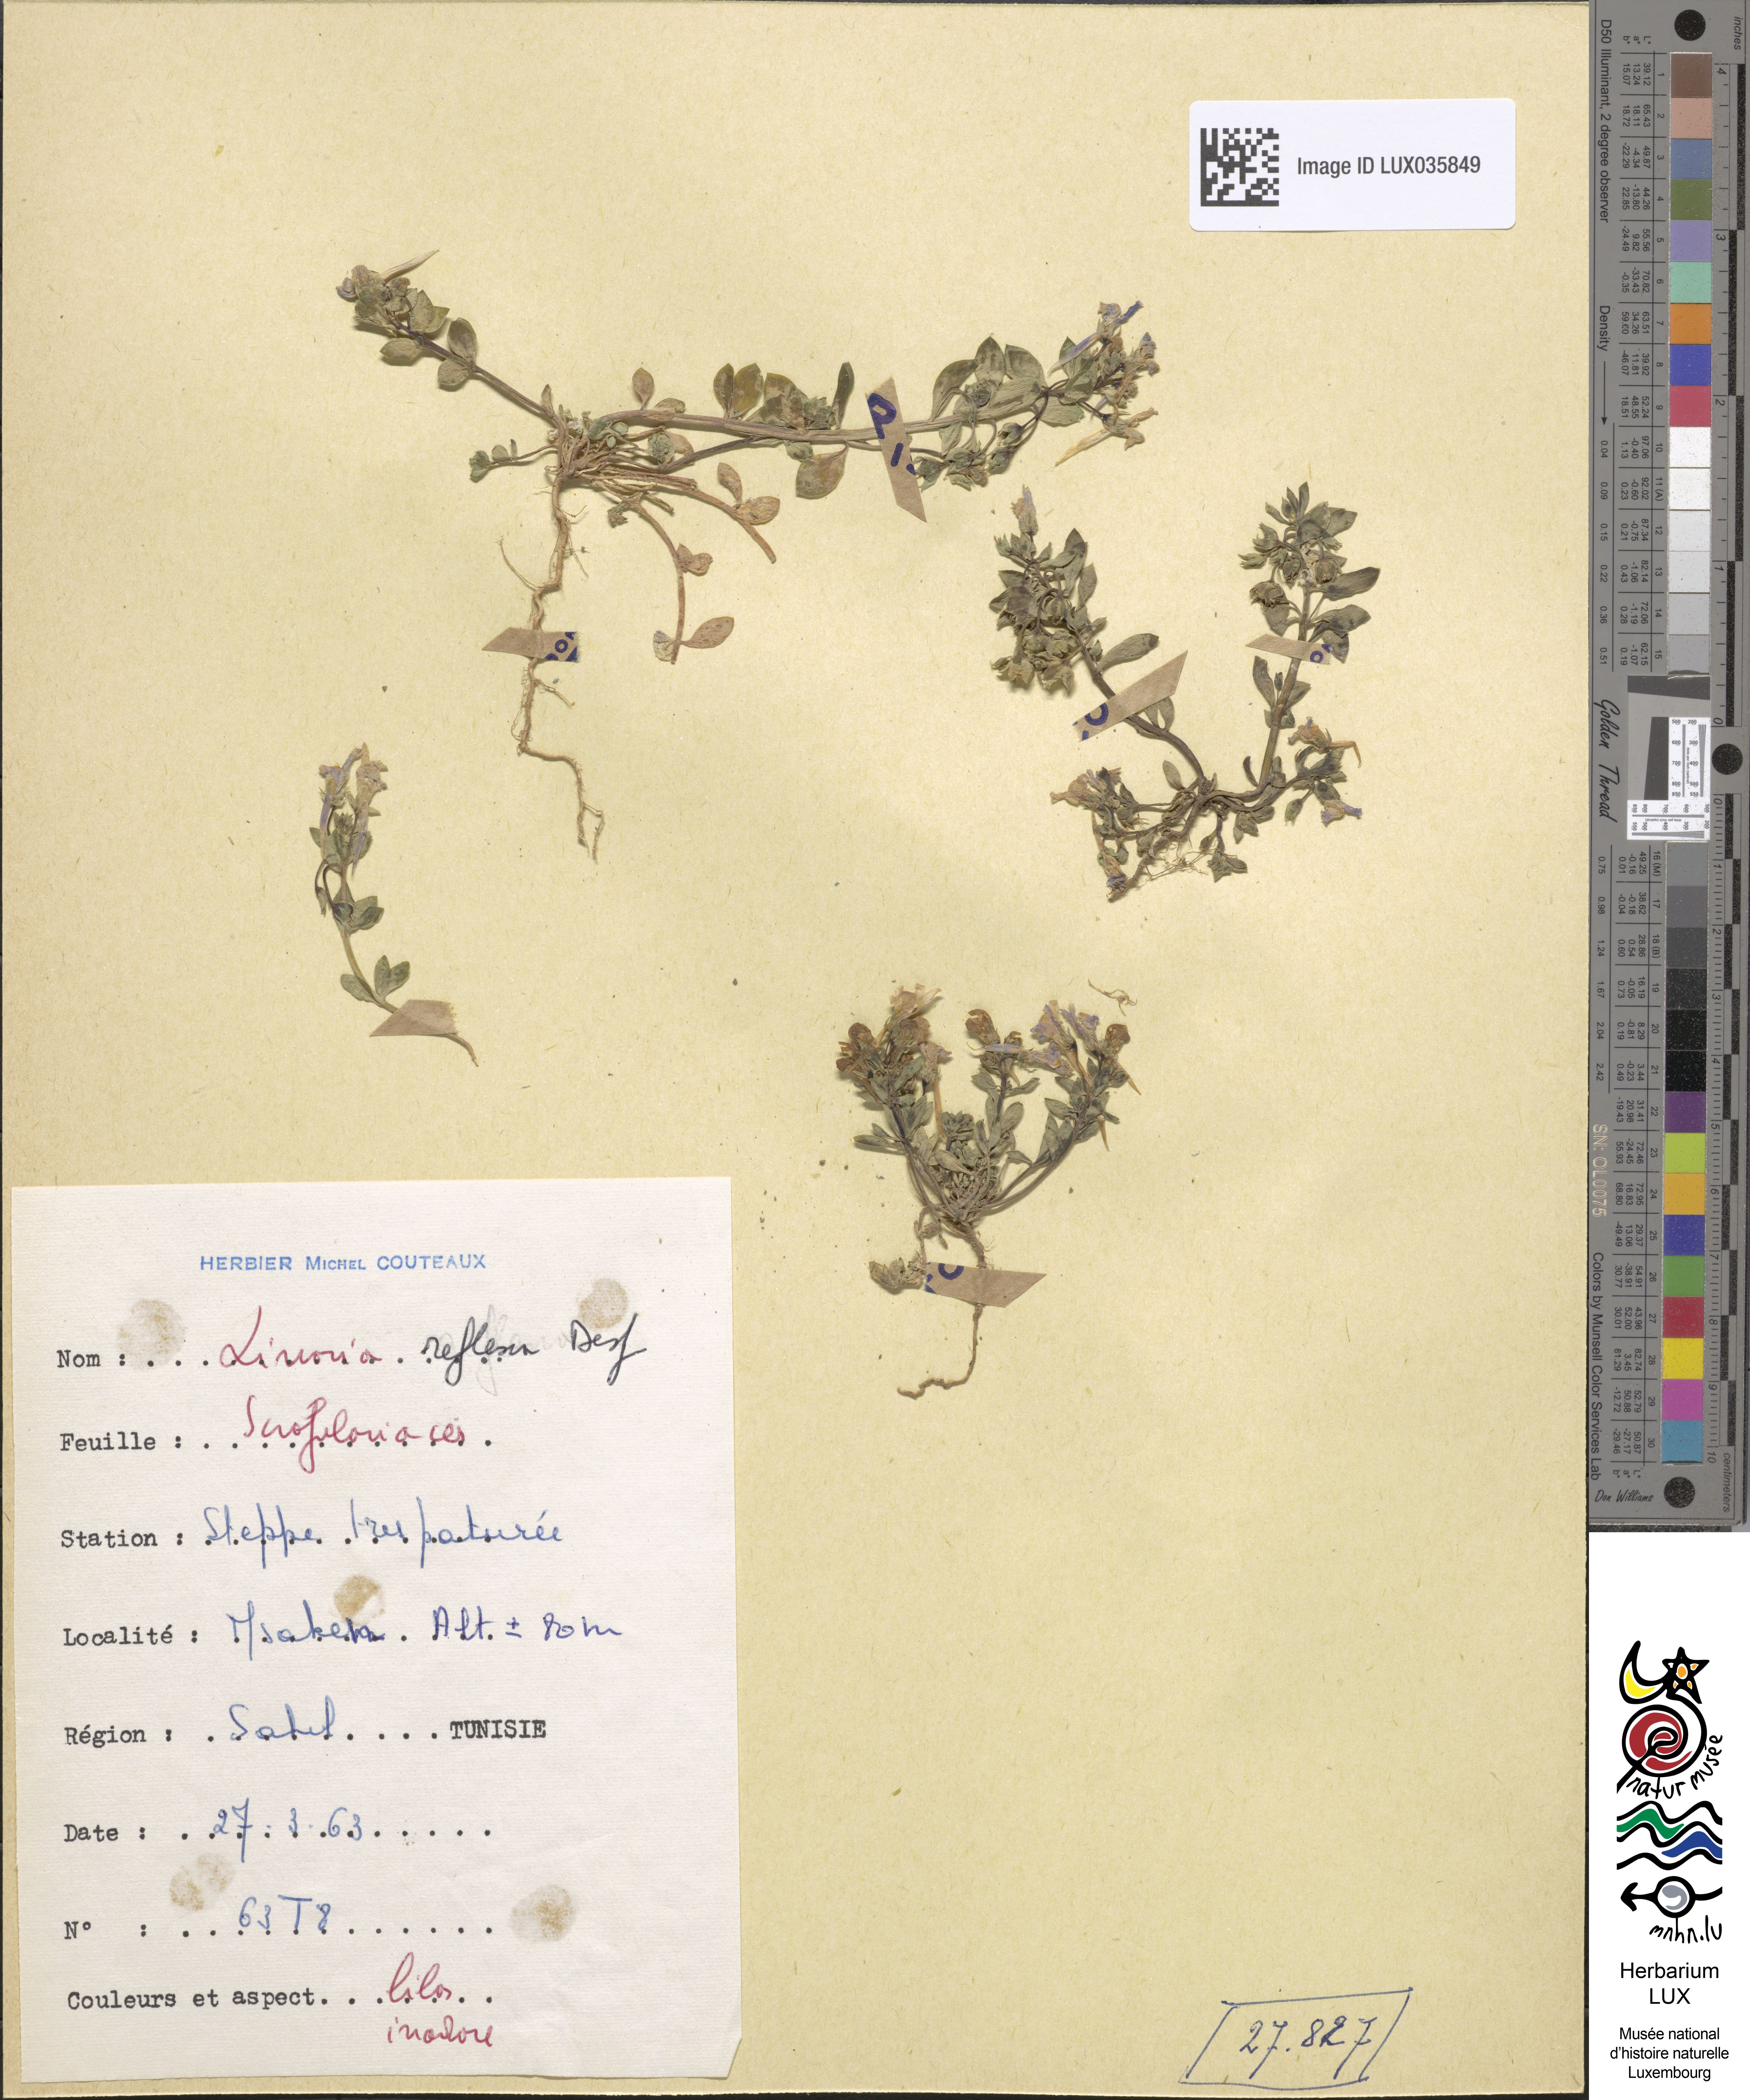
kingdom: Plantae
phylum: Tracheophyta
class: Magnoliopsida
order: Lamiales
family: Plantaginaceae
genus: Linaria
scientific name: Linaria reflexa
